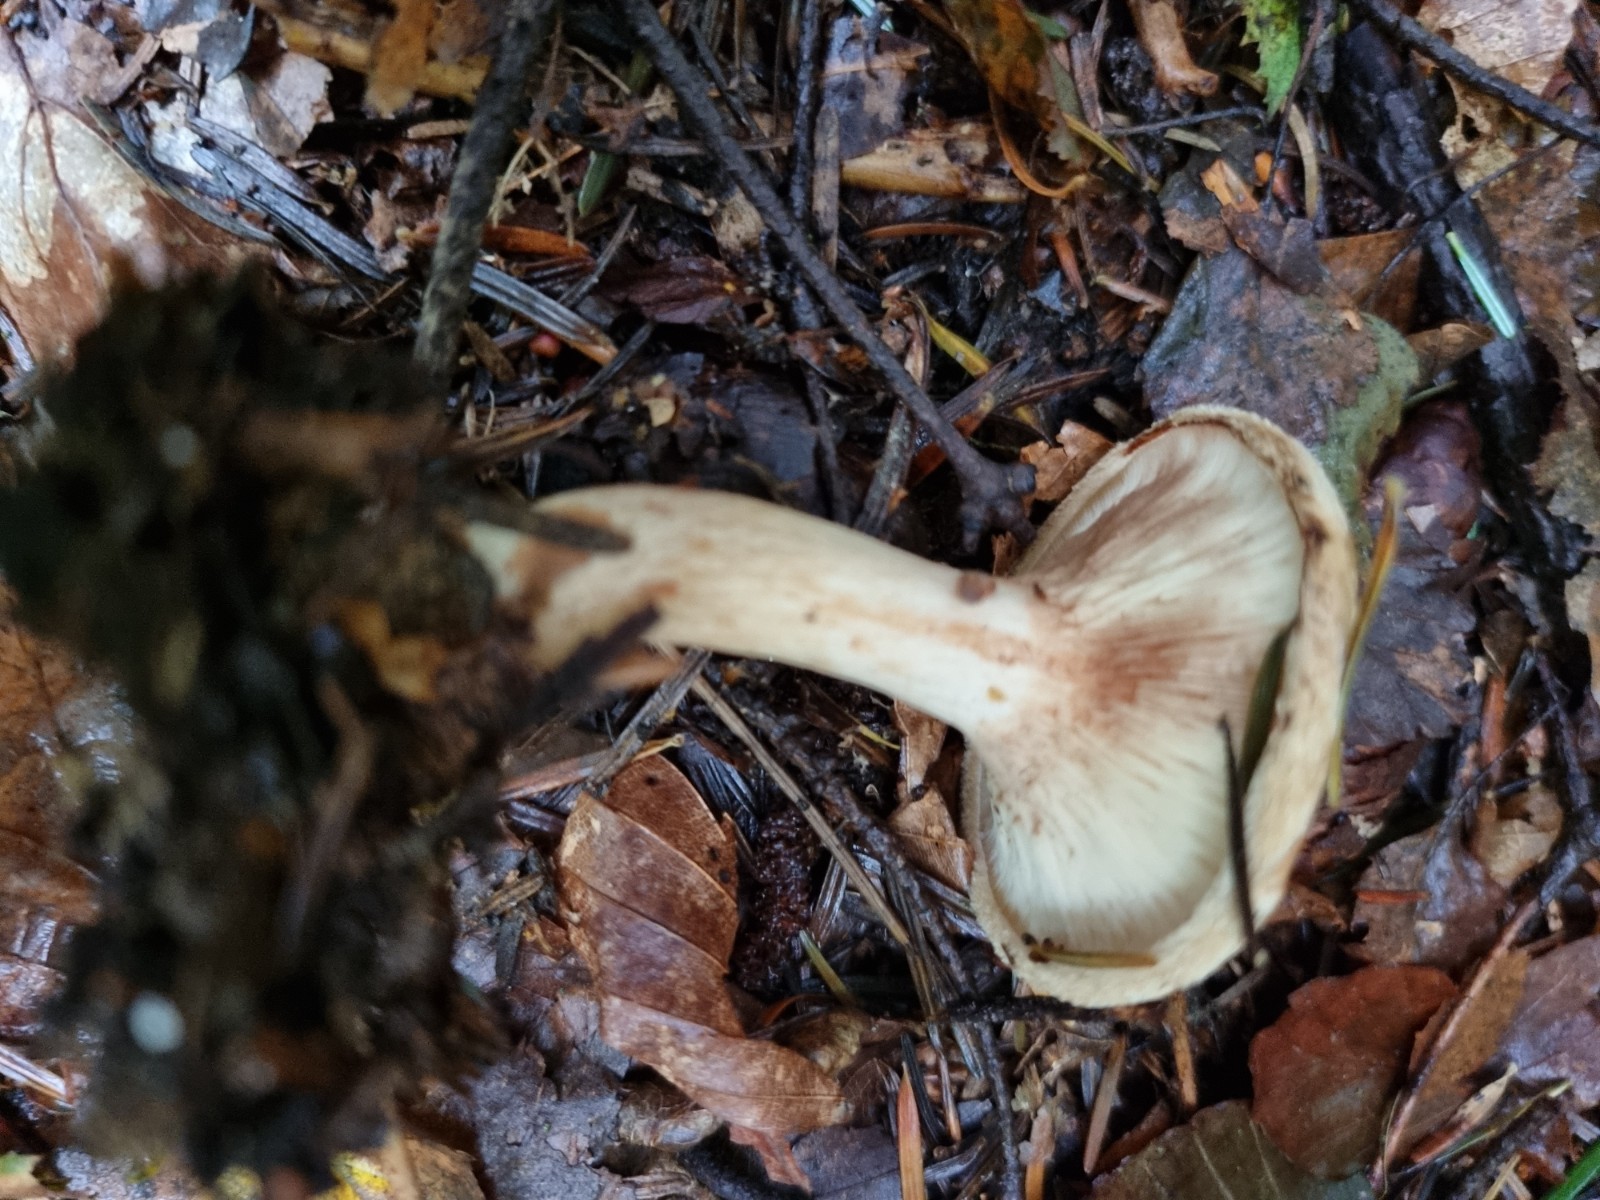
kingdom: Fungi
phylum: Basidiomycota
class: Agaricomycetes
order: Boletales
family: Paxillaceae
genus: Paxillus
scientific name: Paxillus involutus
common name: almindelig netbladhat
